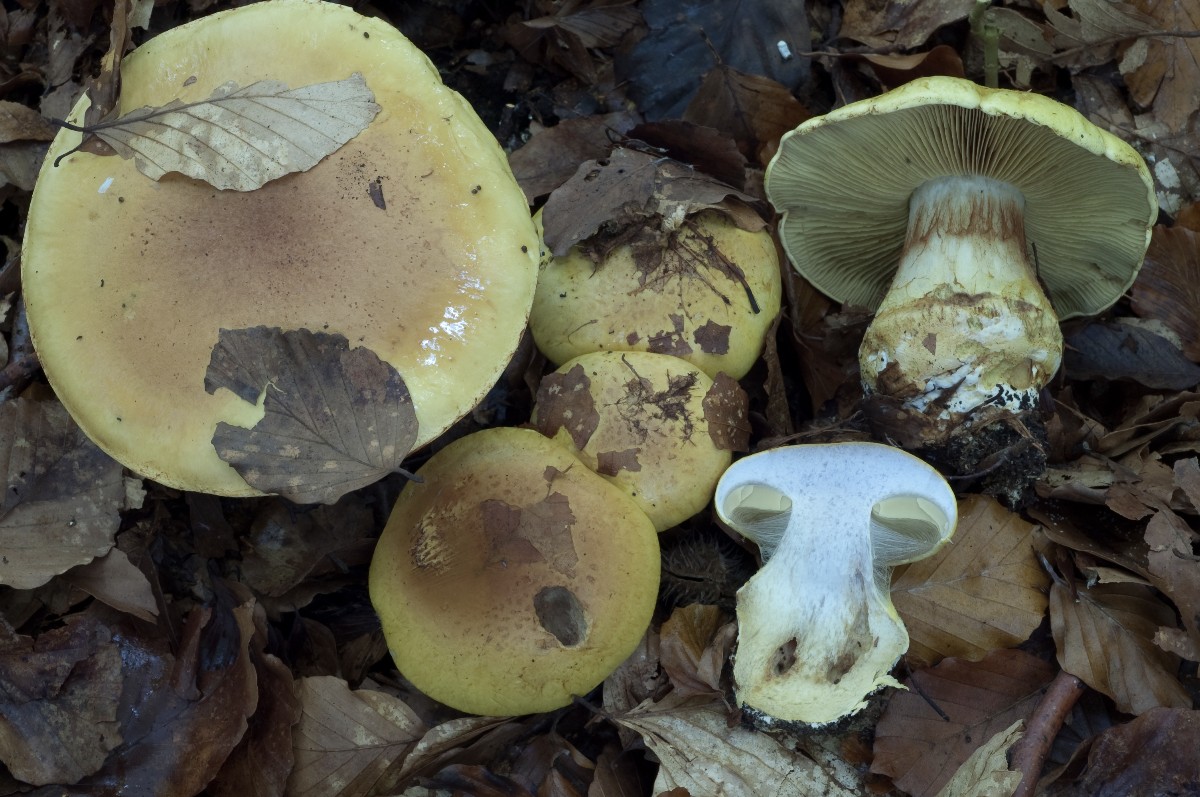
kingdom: Fungi
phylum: Basidiomycota
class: Agaricomycetes
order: Agaricales
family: Cortinariaceae
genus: Calonarius
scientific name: Calonarius elegantissimus
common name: orangegylden slørhat
